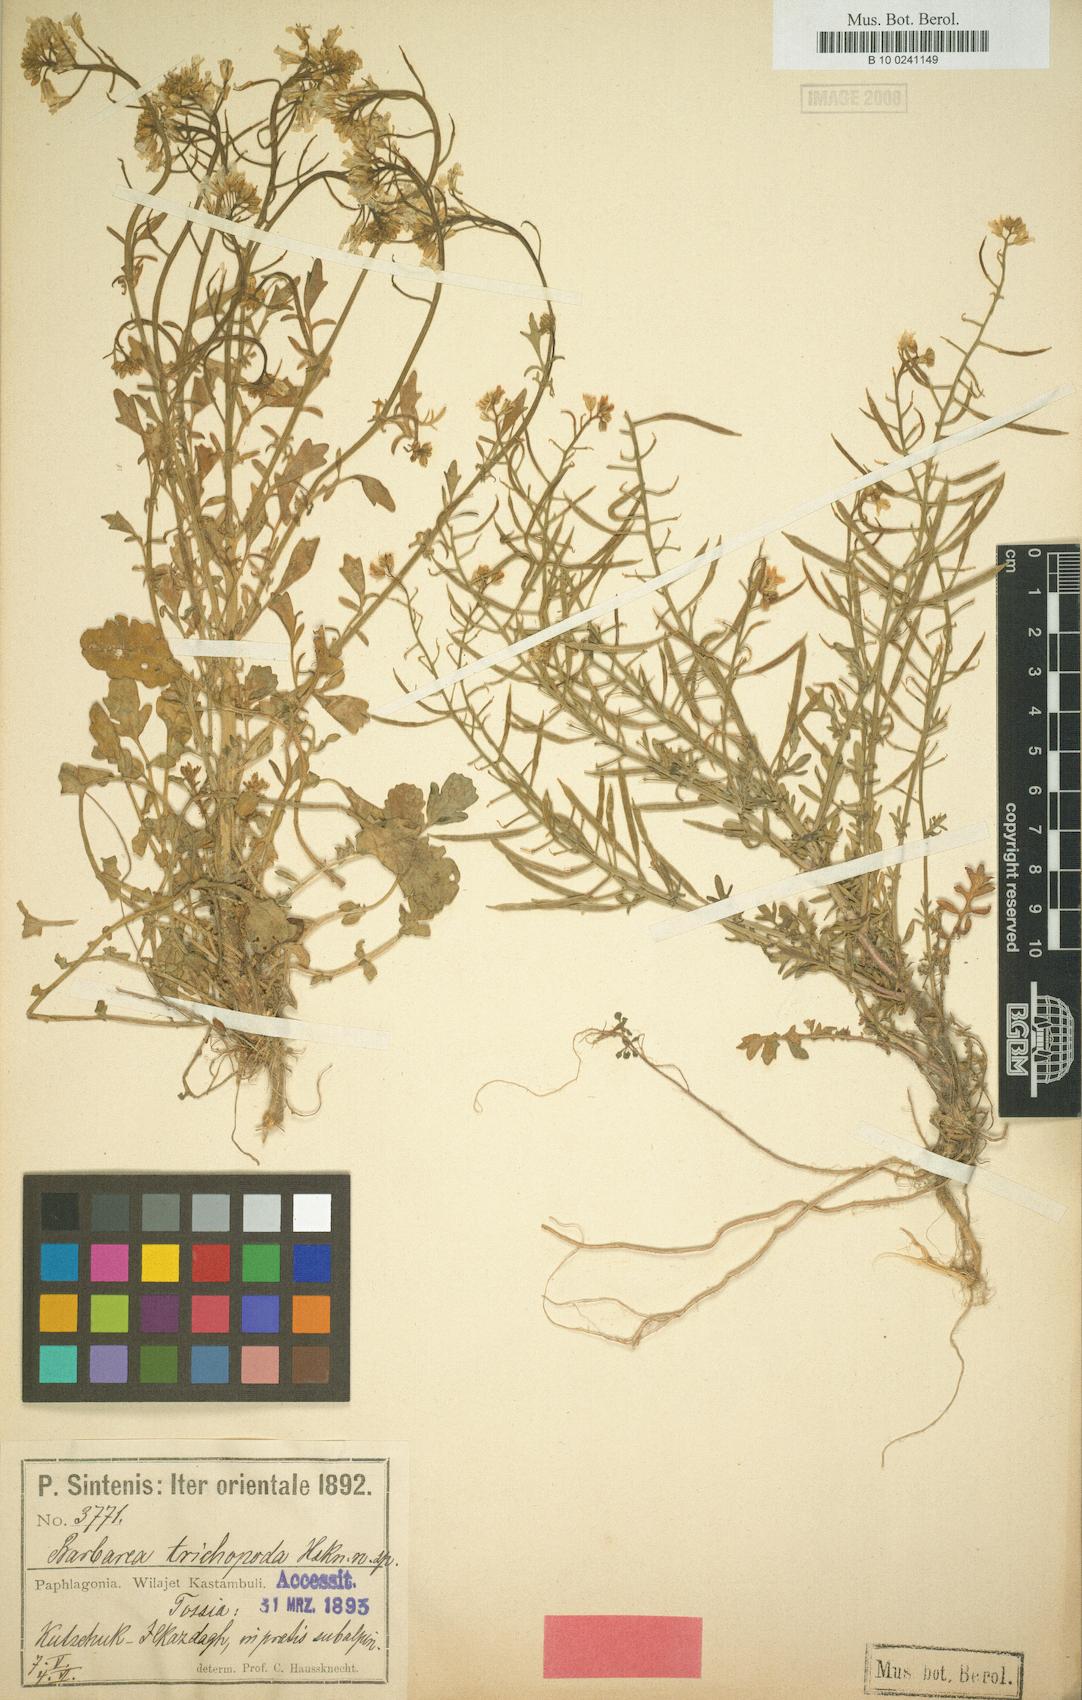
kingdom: Plantae
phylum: Tracheophyta
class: Magnoliopsida
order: Brassicales
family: Brassicaceae
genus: Barbarea
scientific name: Barbarea trichopoda
